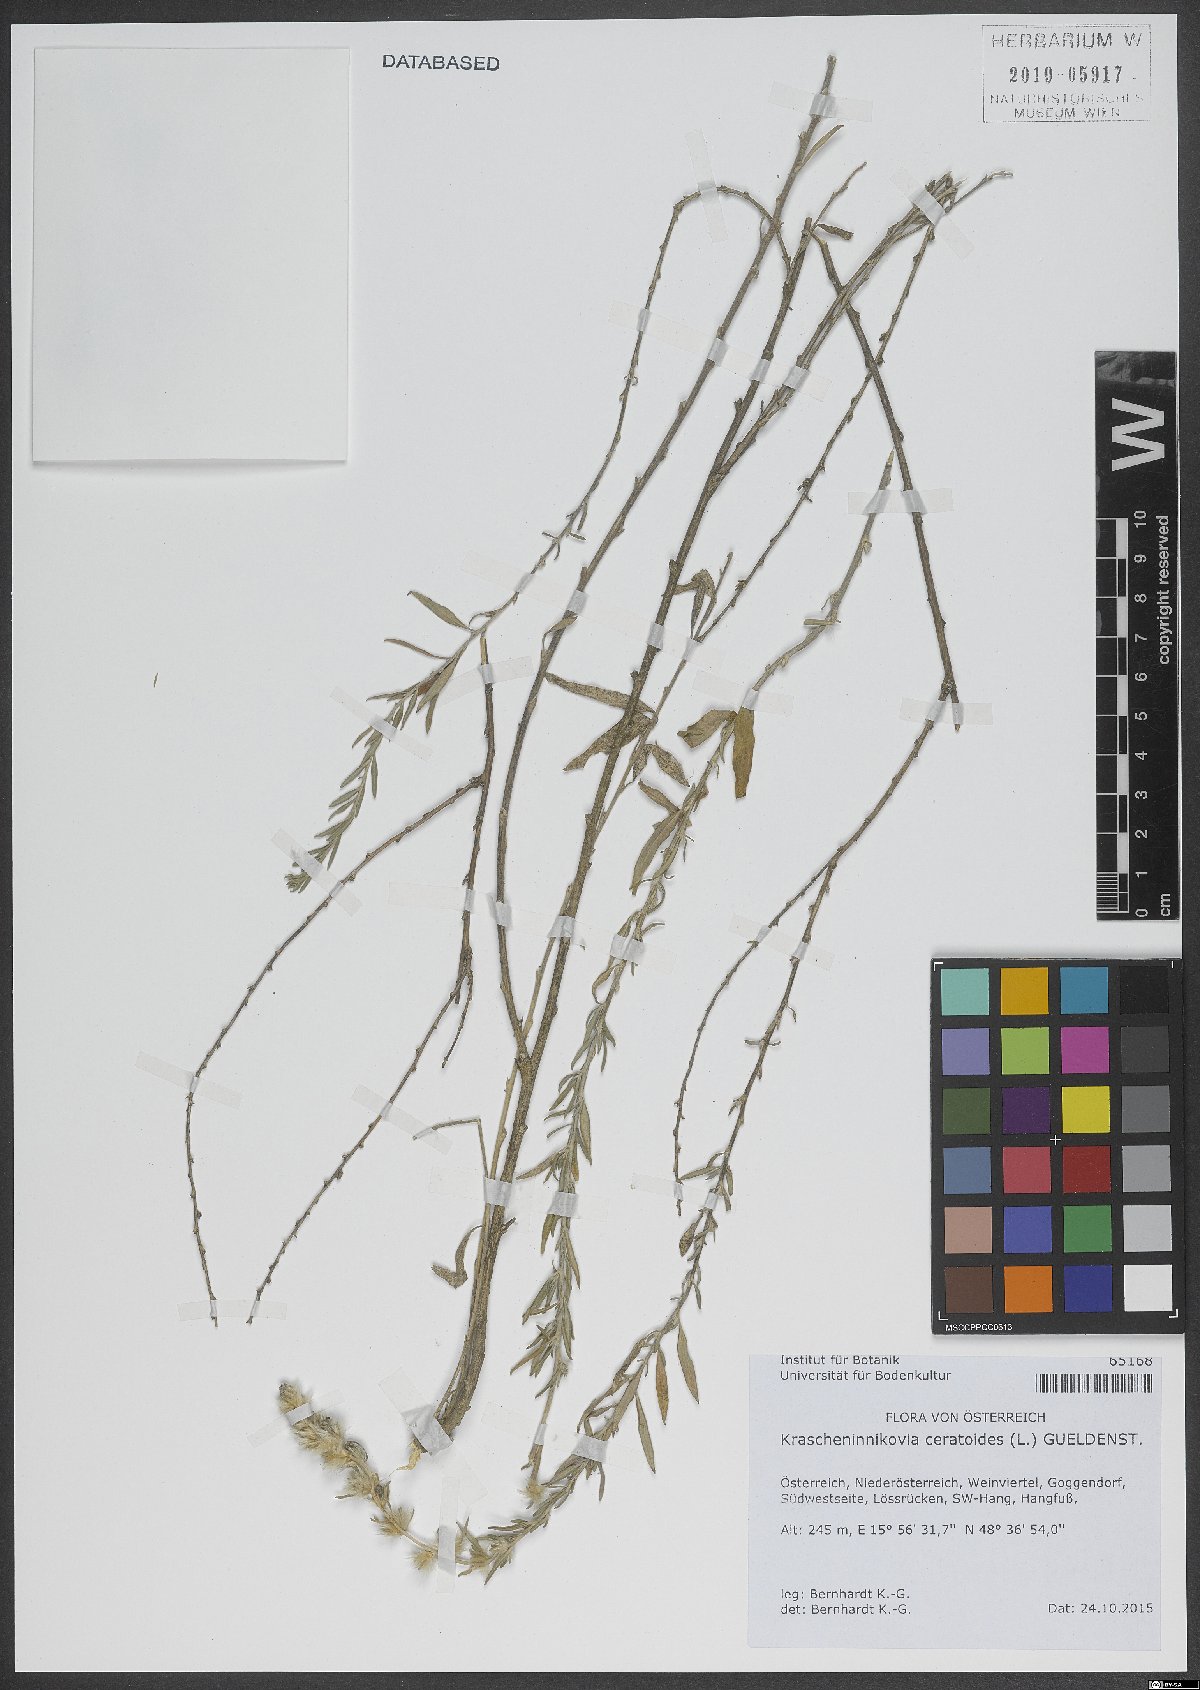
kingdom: Plantae
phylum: Tracheophyta
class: Magnoliopsida
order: Caryophyllales
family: Amaranthaceae
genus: Krascheninnikovia
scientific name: Krascheninnikovia ceratoides
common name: Pamirian winterfat
